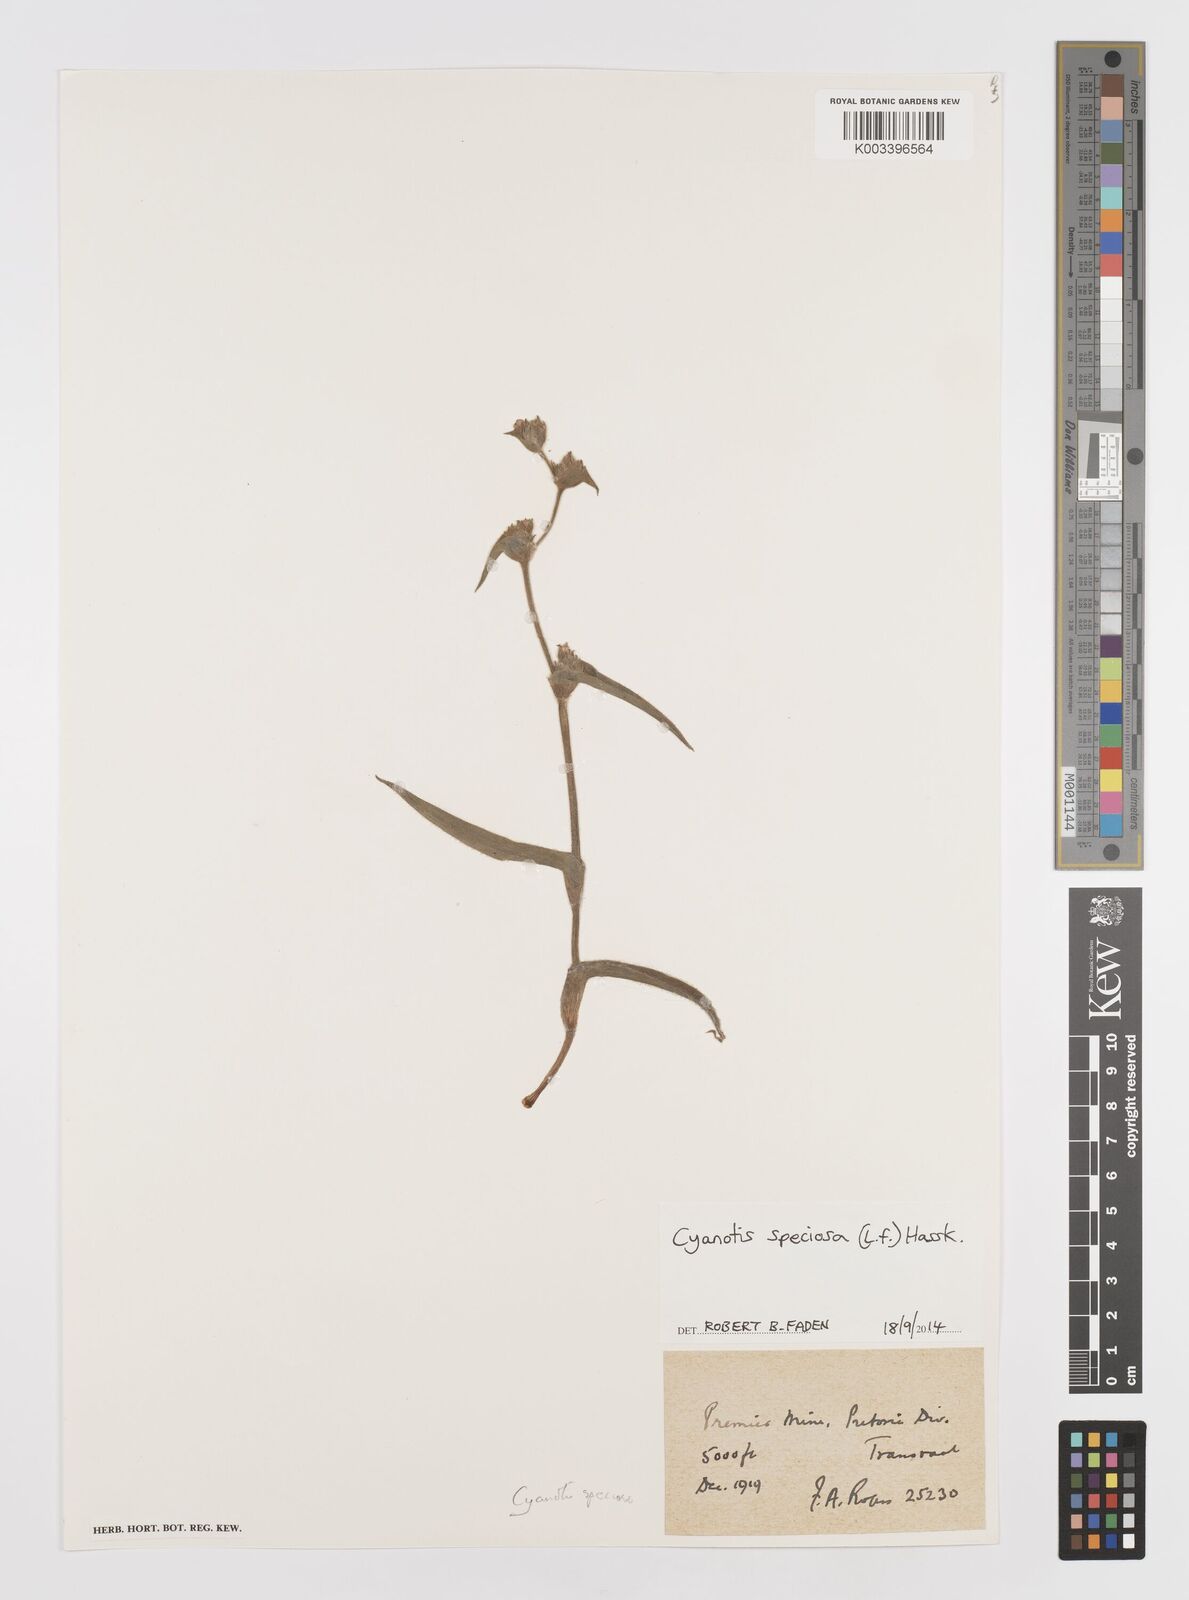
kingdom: Plantae
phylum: Tracheophyta
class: Liliopsida
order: Commelinales
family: Commelinaceae
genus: Cyanotis
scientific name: Cyanotis speciosa
